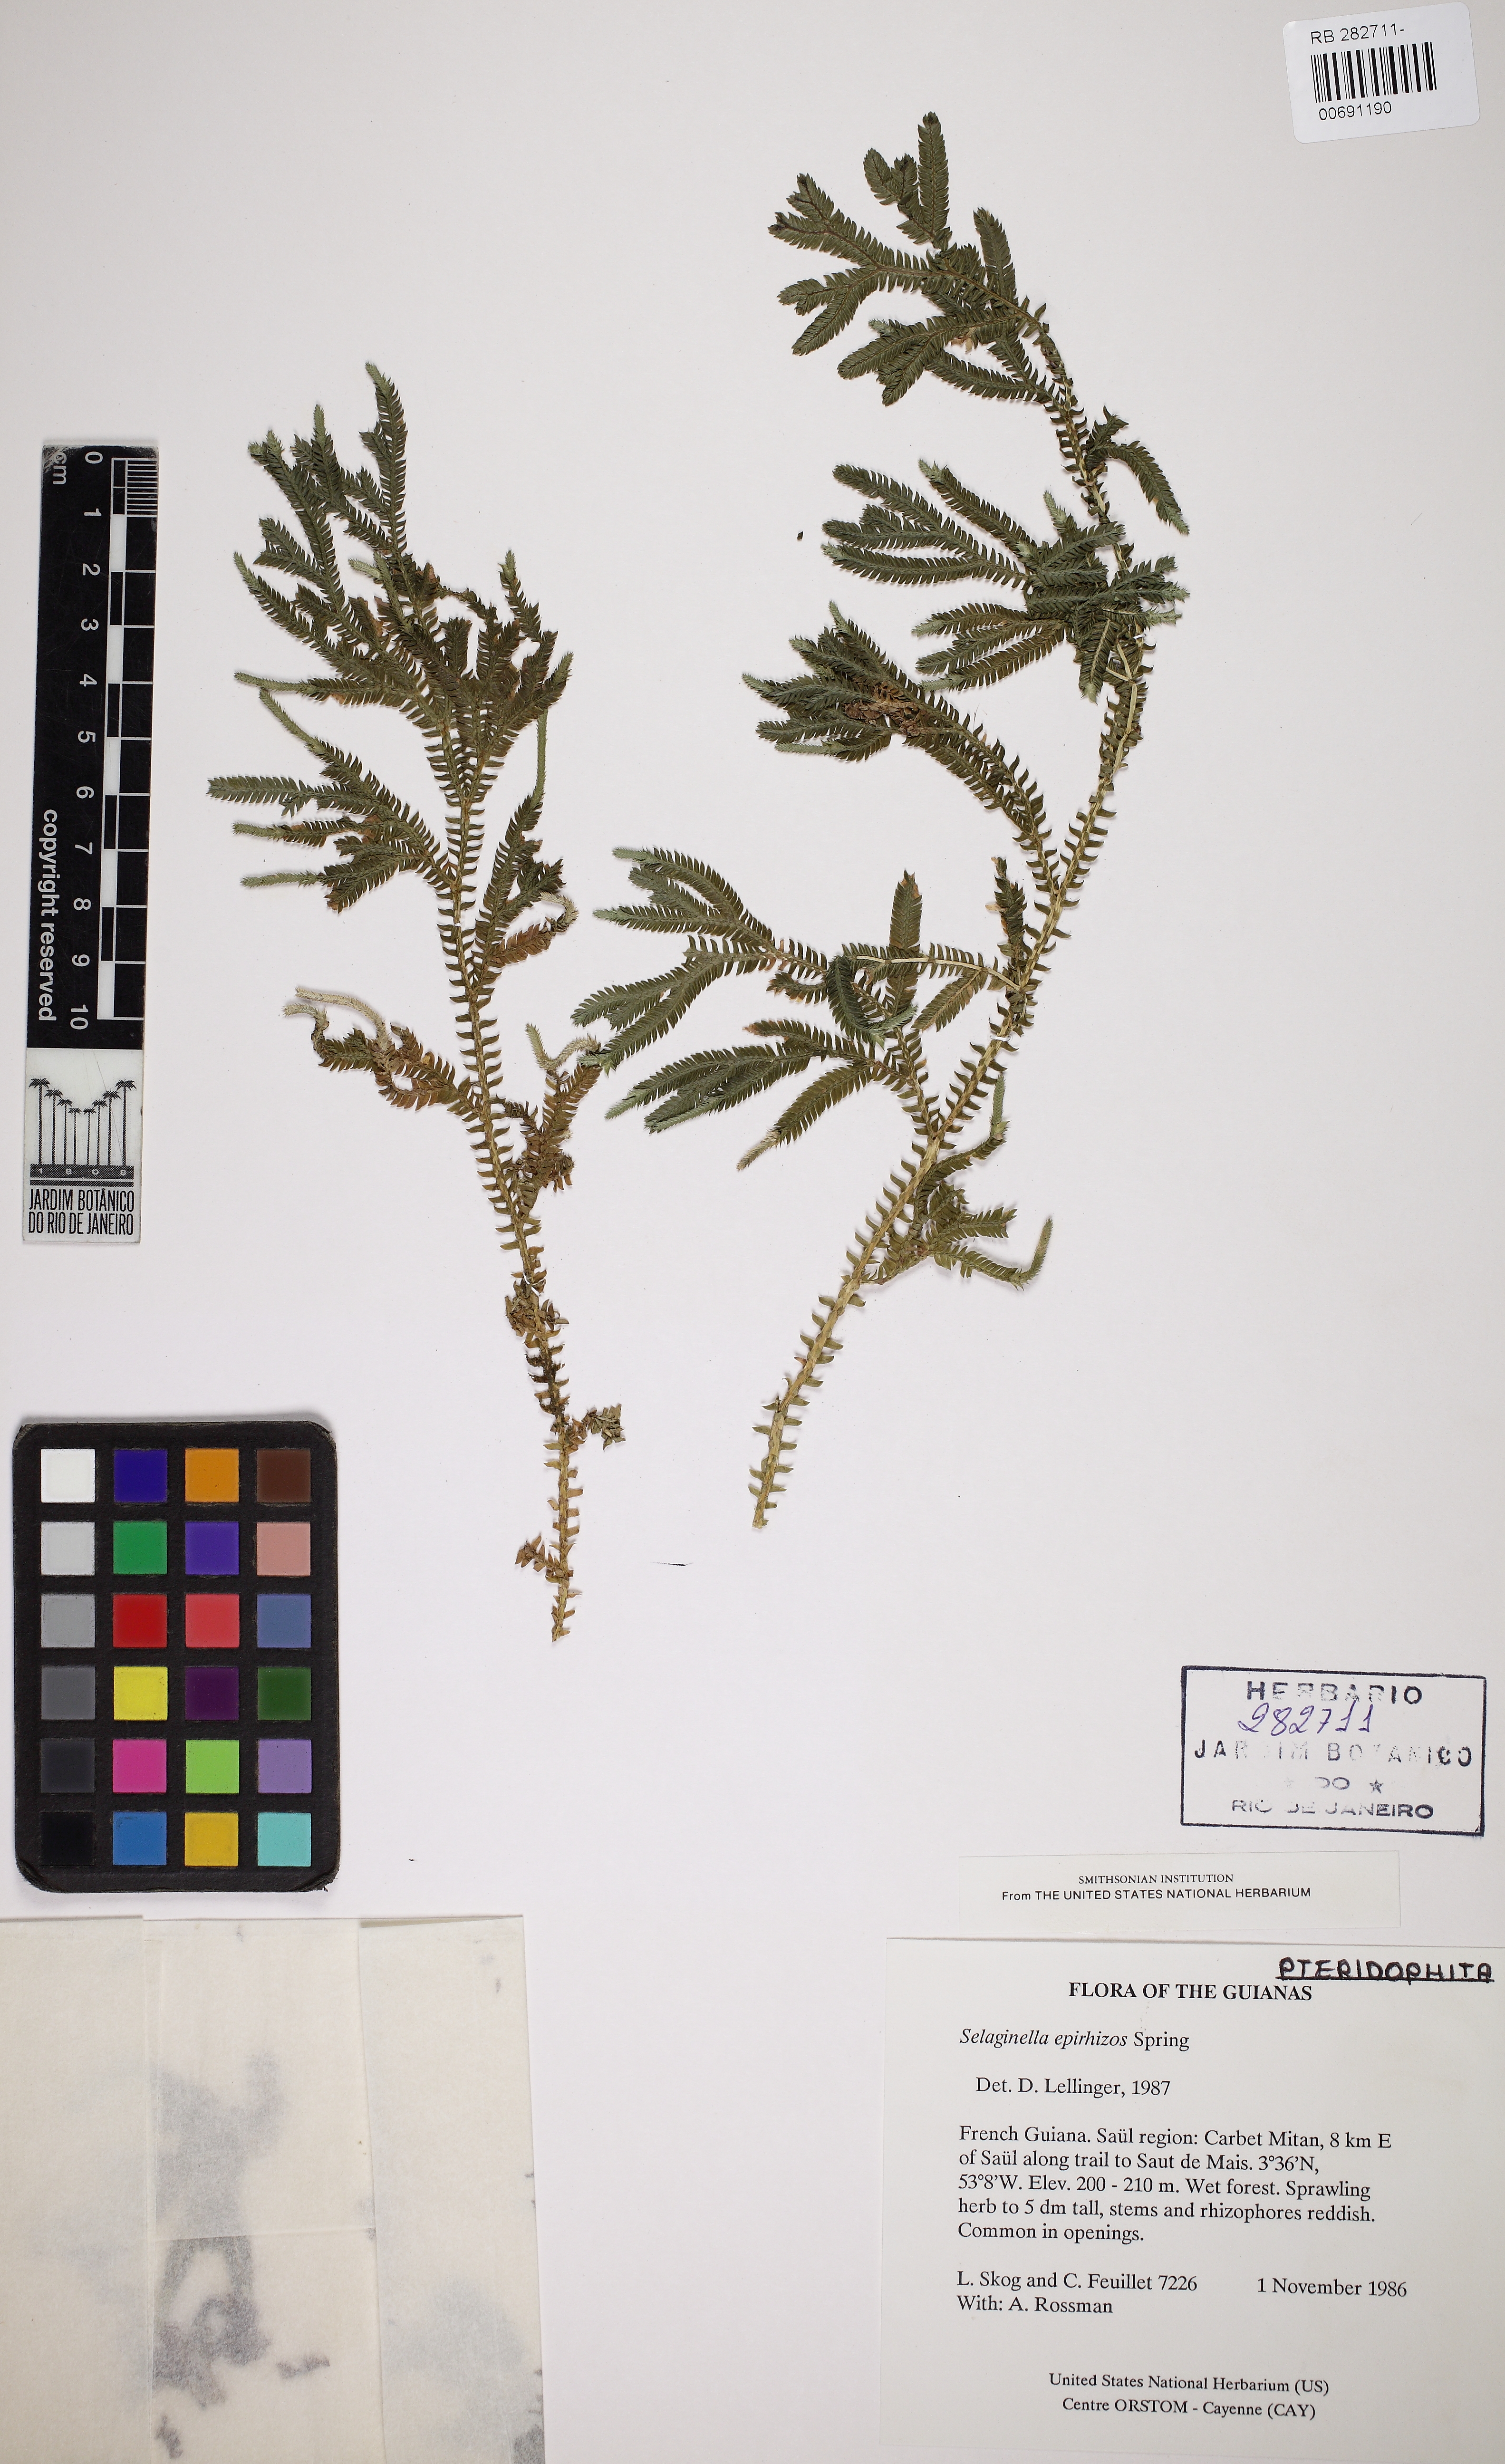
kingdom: Plantae
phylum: Tracheophyta
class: Lycopodiopsida
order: Selaginellales
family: Selaginellaceae
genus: Selaginella
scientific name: Selaginella epirrhizos
